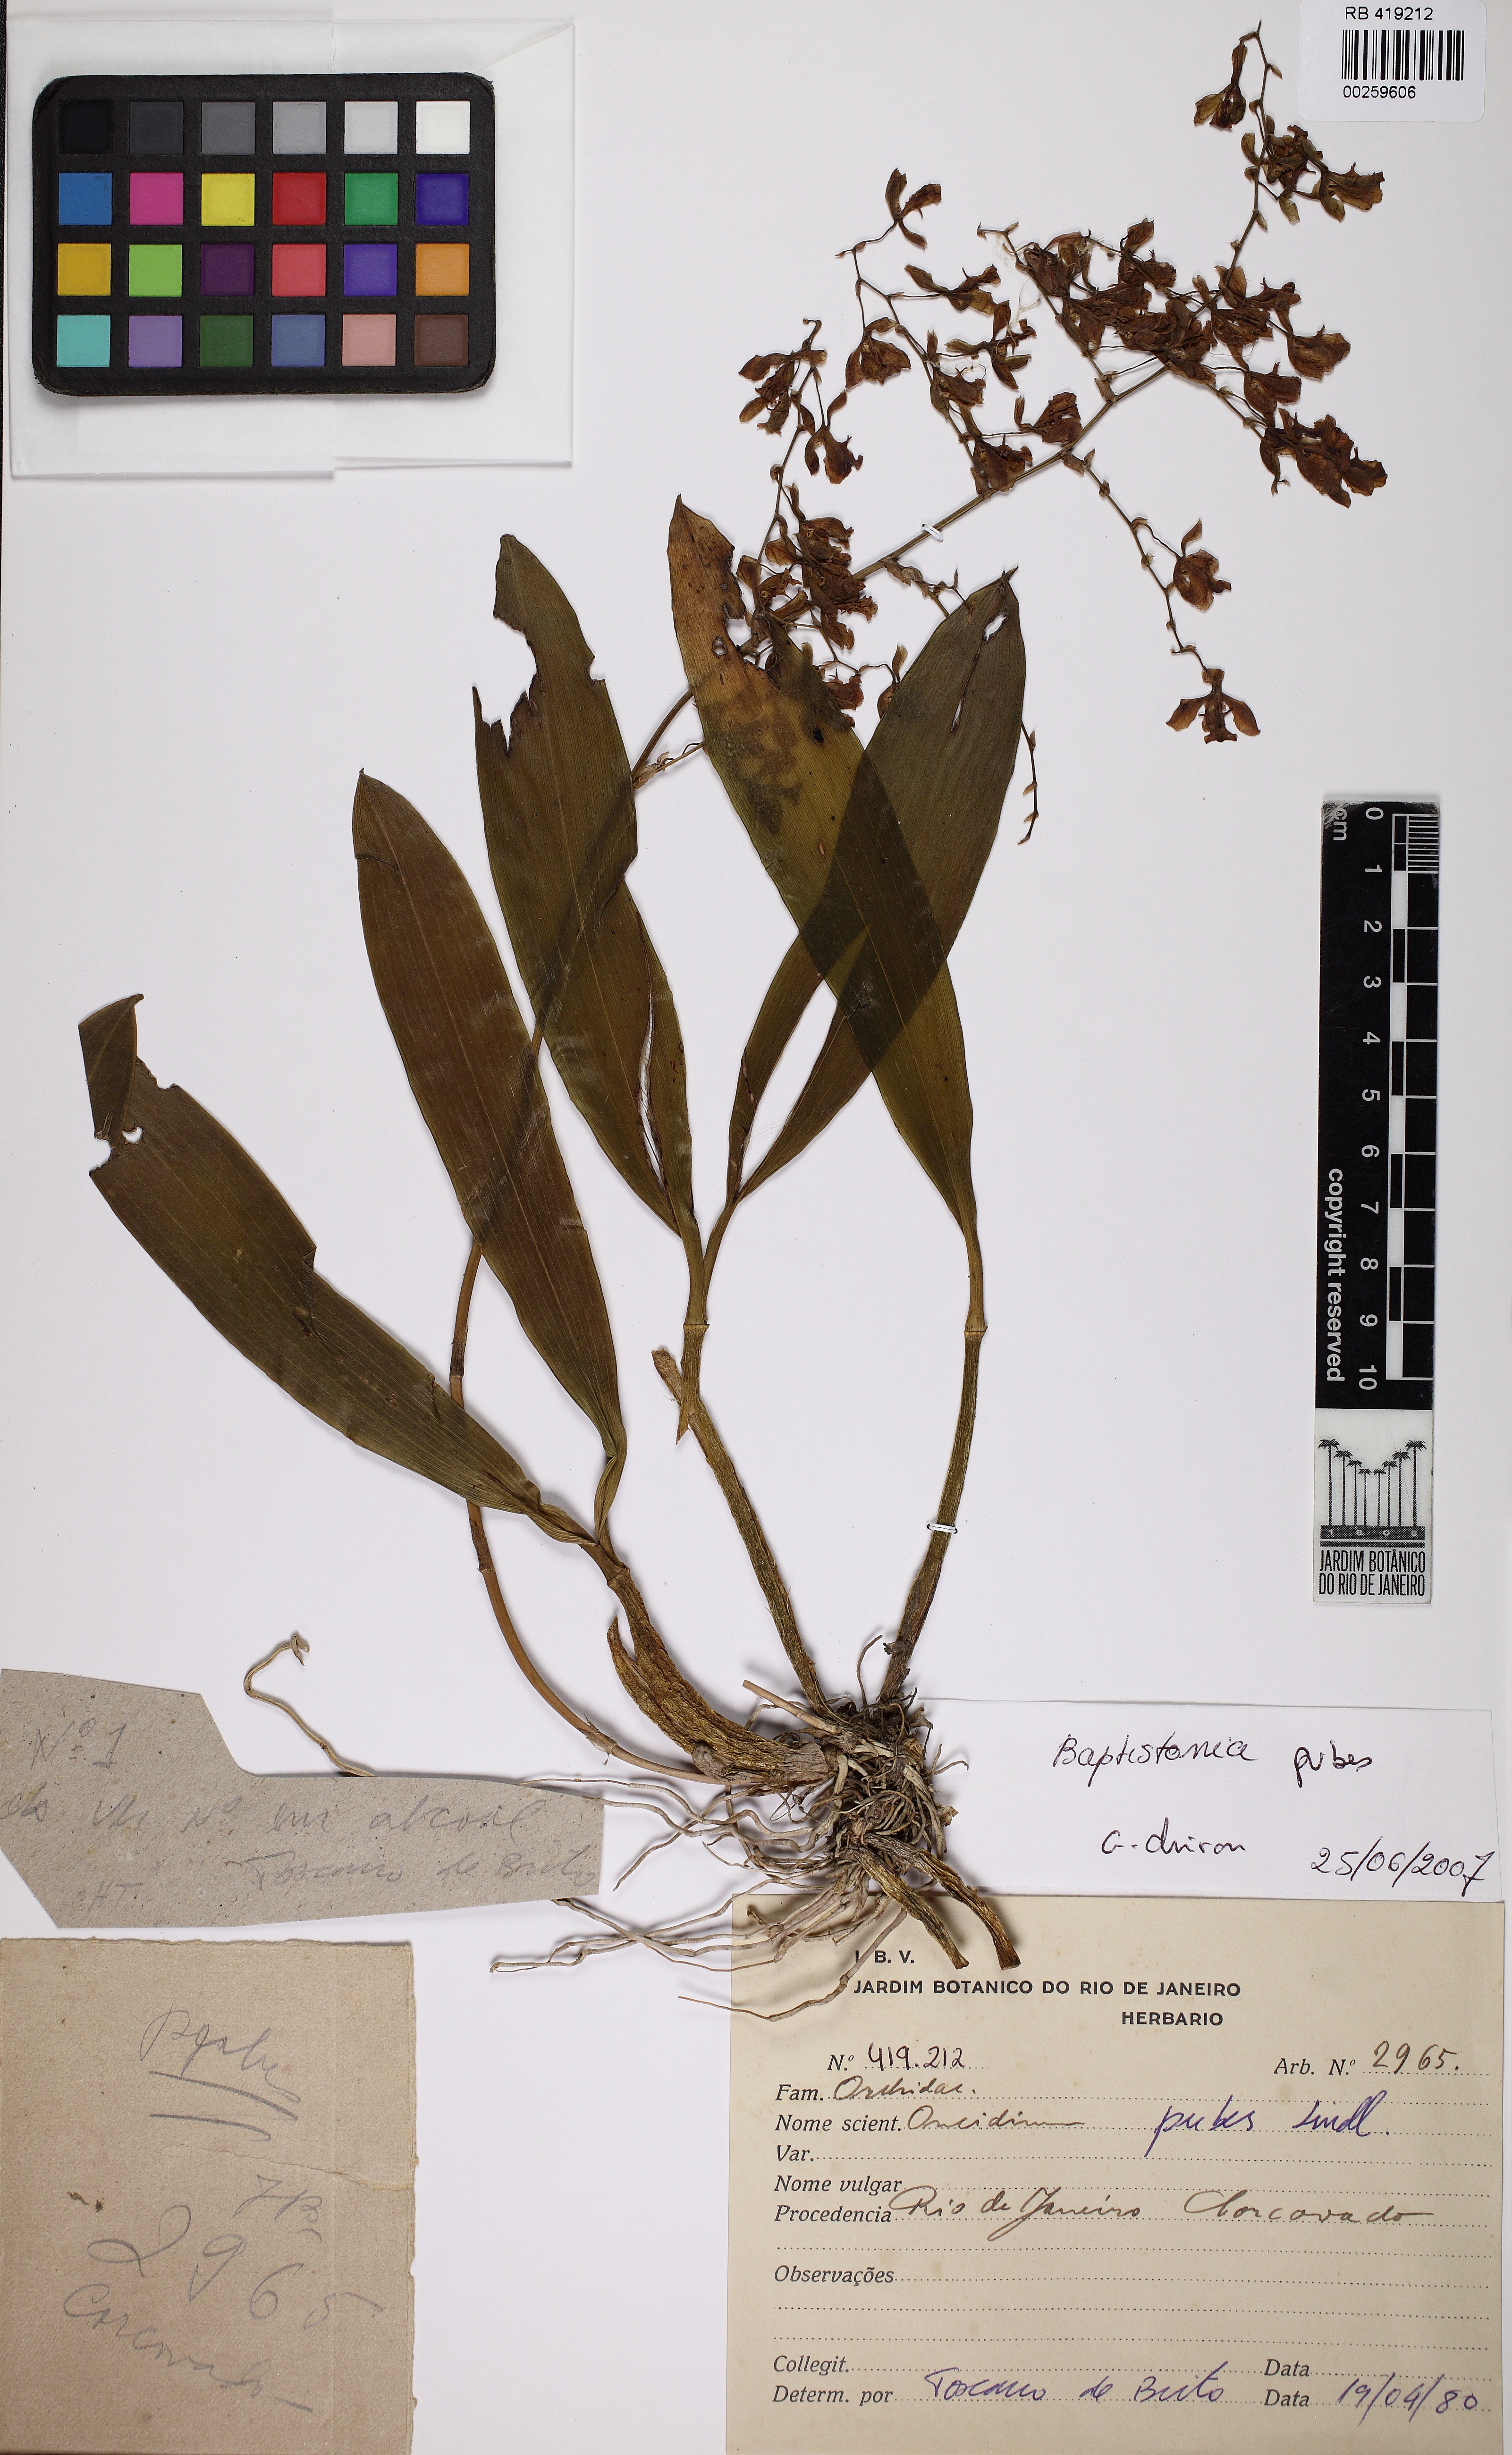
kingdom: Plantae
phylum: Tracheophyta
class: Liliopsida
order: Asparagales
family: Orchidaceae
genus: Gomesa
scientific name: Gomesa pubes
